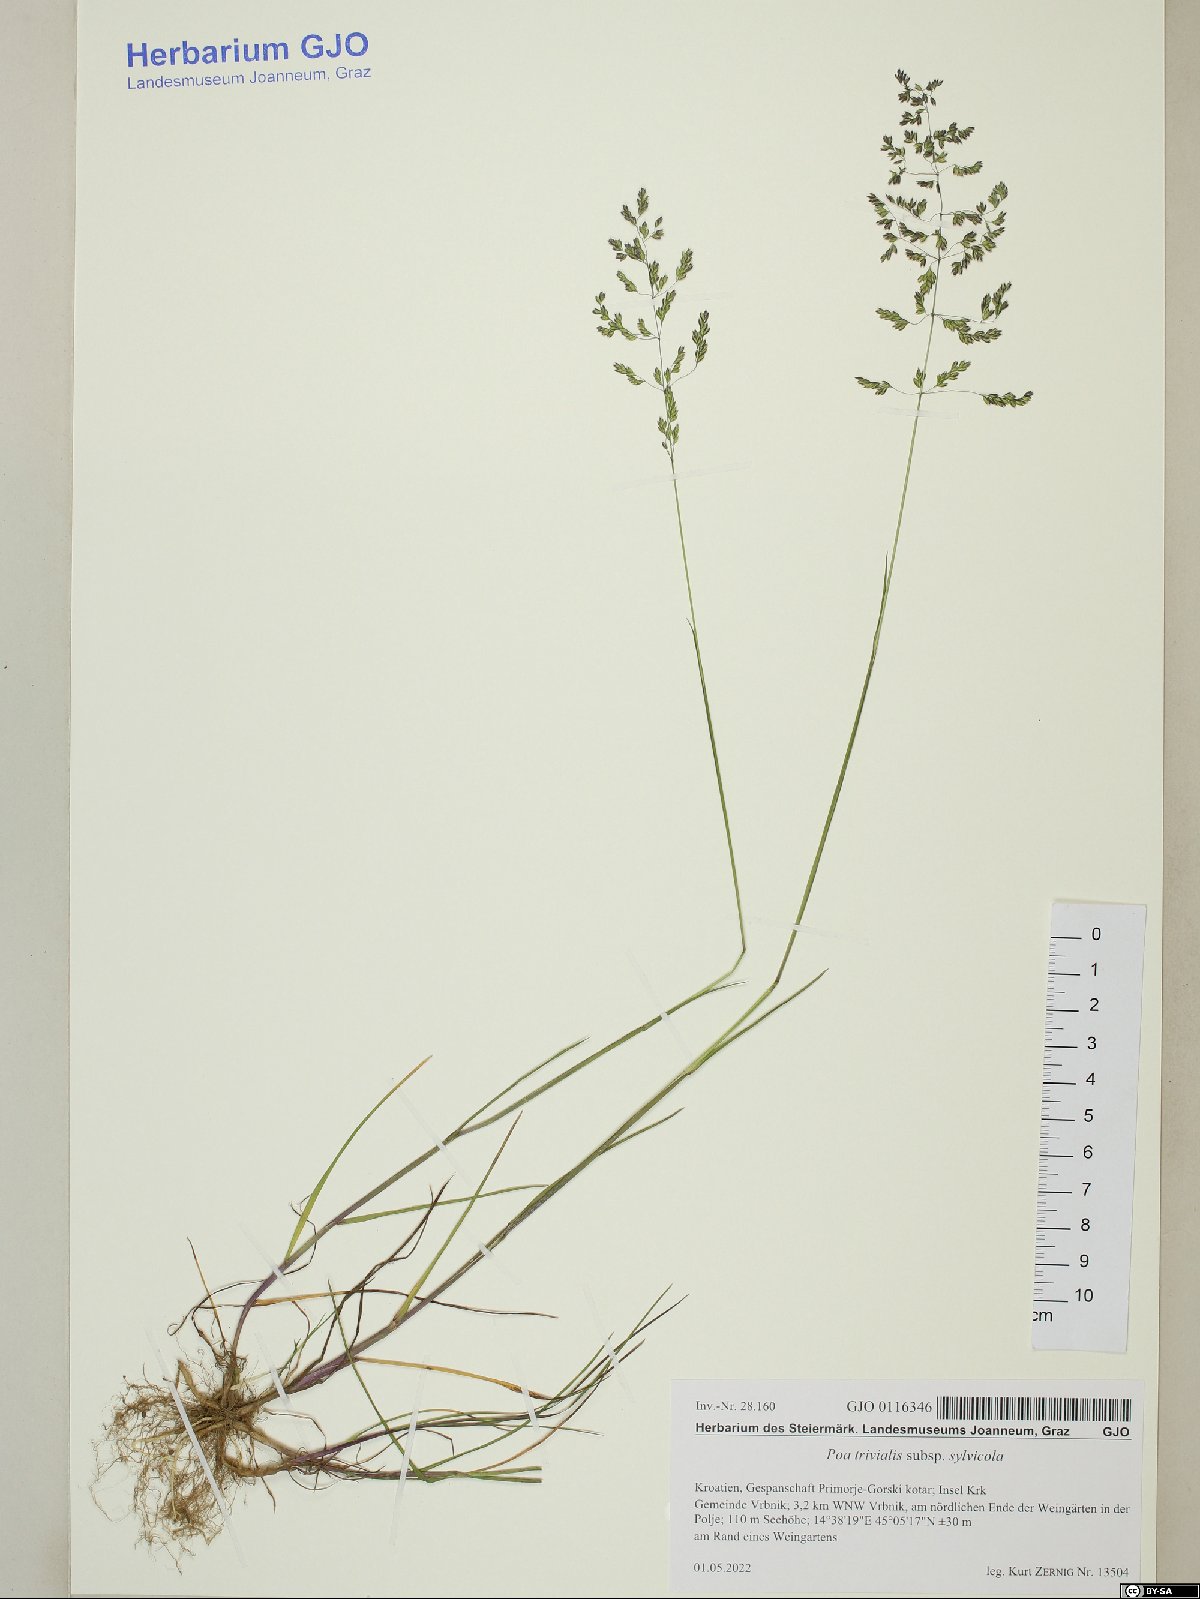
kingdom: Plantae
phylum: Tracheophyta
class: Liliopsida
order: Poales
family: Poaceae
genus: Poa
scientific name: Poa trivialis
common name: Rough bluegrass
